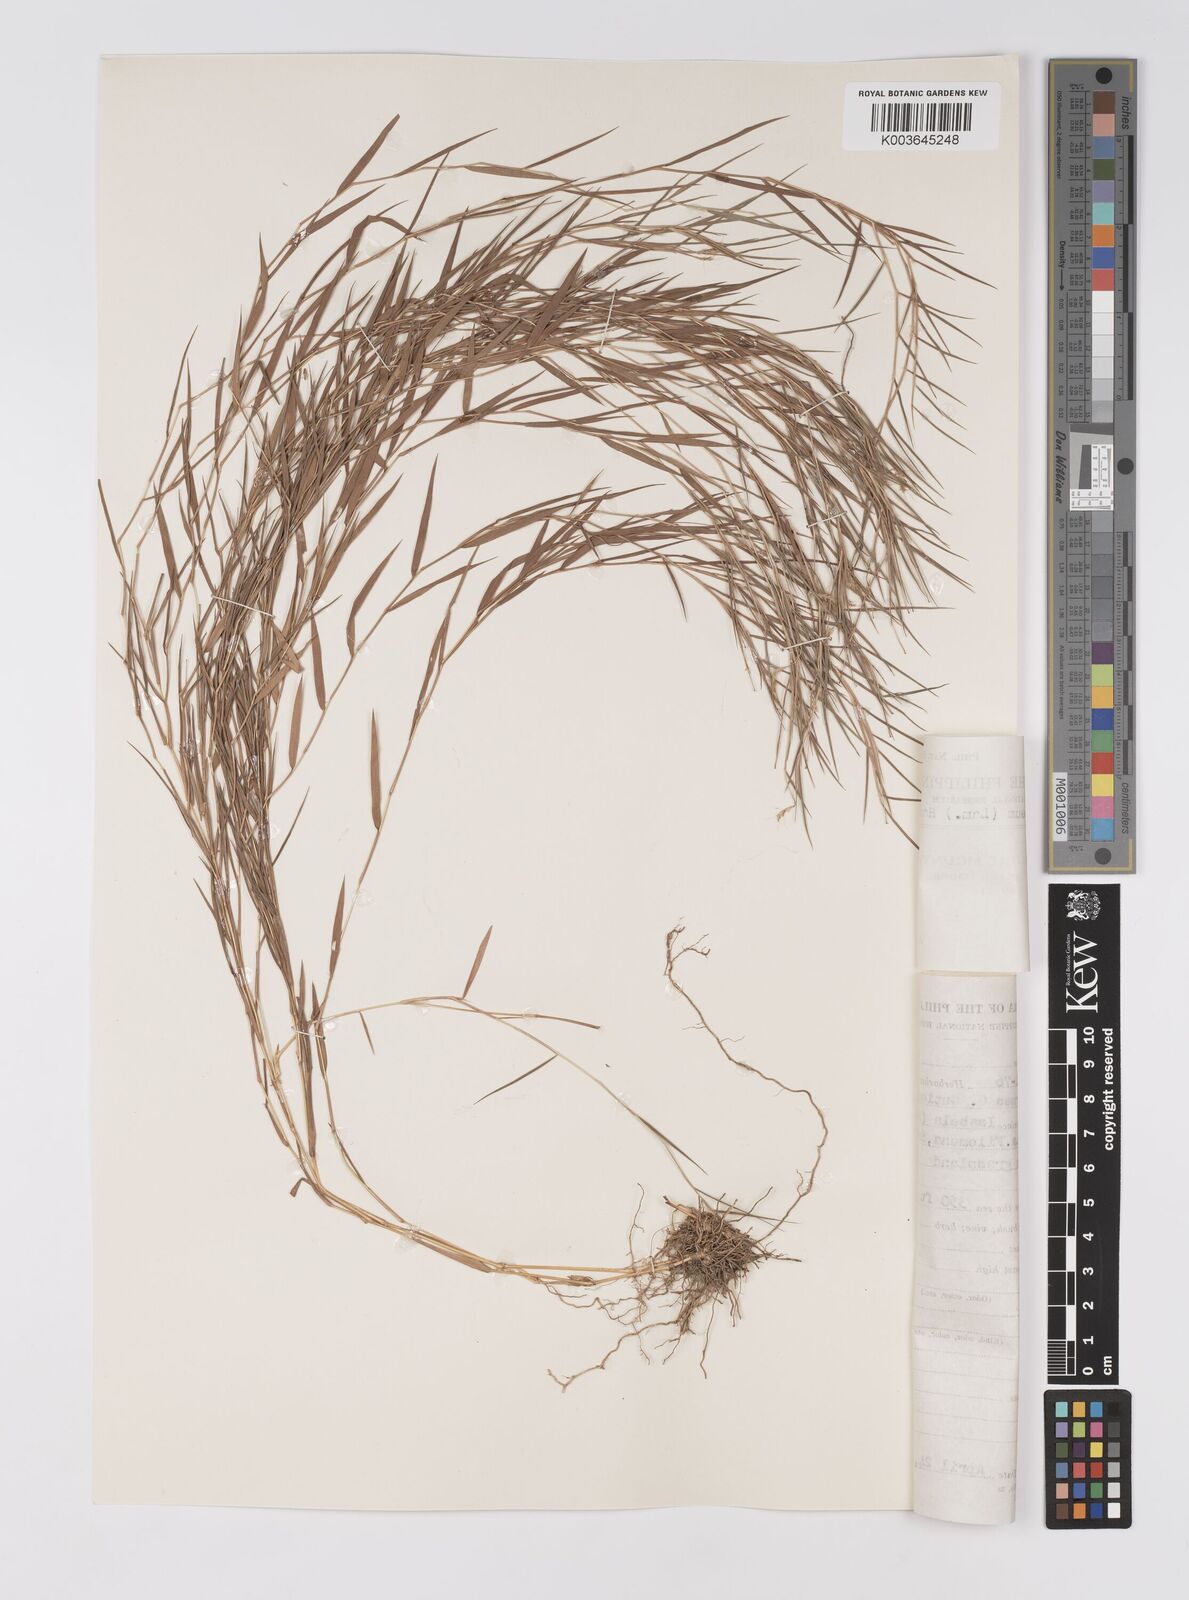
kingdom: Plantae
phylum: Tracheophyta
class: Liliopsida
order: Poales
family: Poaceae
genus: Pogonatherum
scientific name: Pogonatherum paniceum
